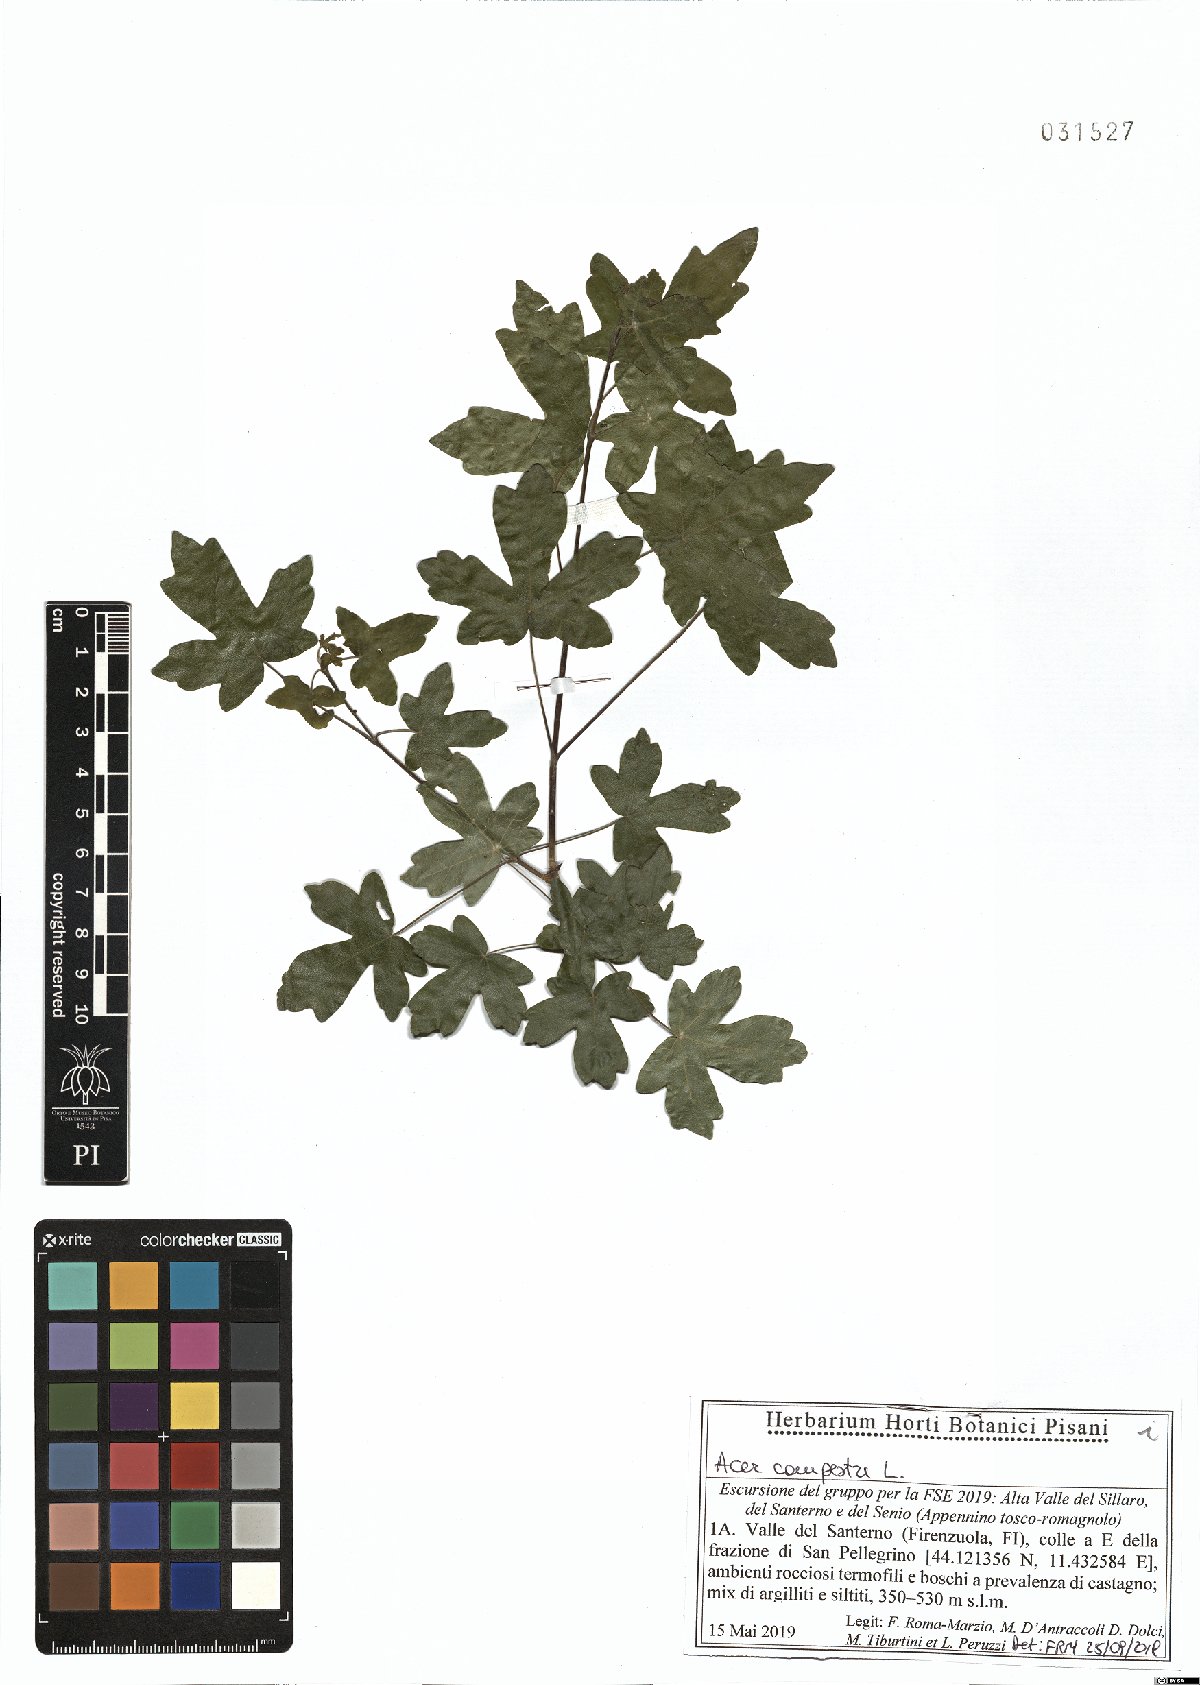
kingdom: Plantae
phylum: Tracheophyta
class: Magnoliopsida
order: Sapindales
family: Sapindaceae
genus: Acer
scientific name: Acer campestre
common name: Field maple
